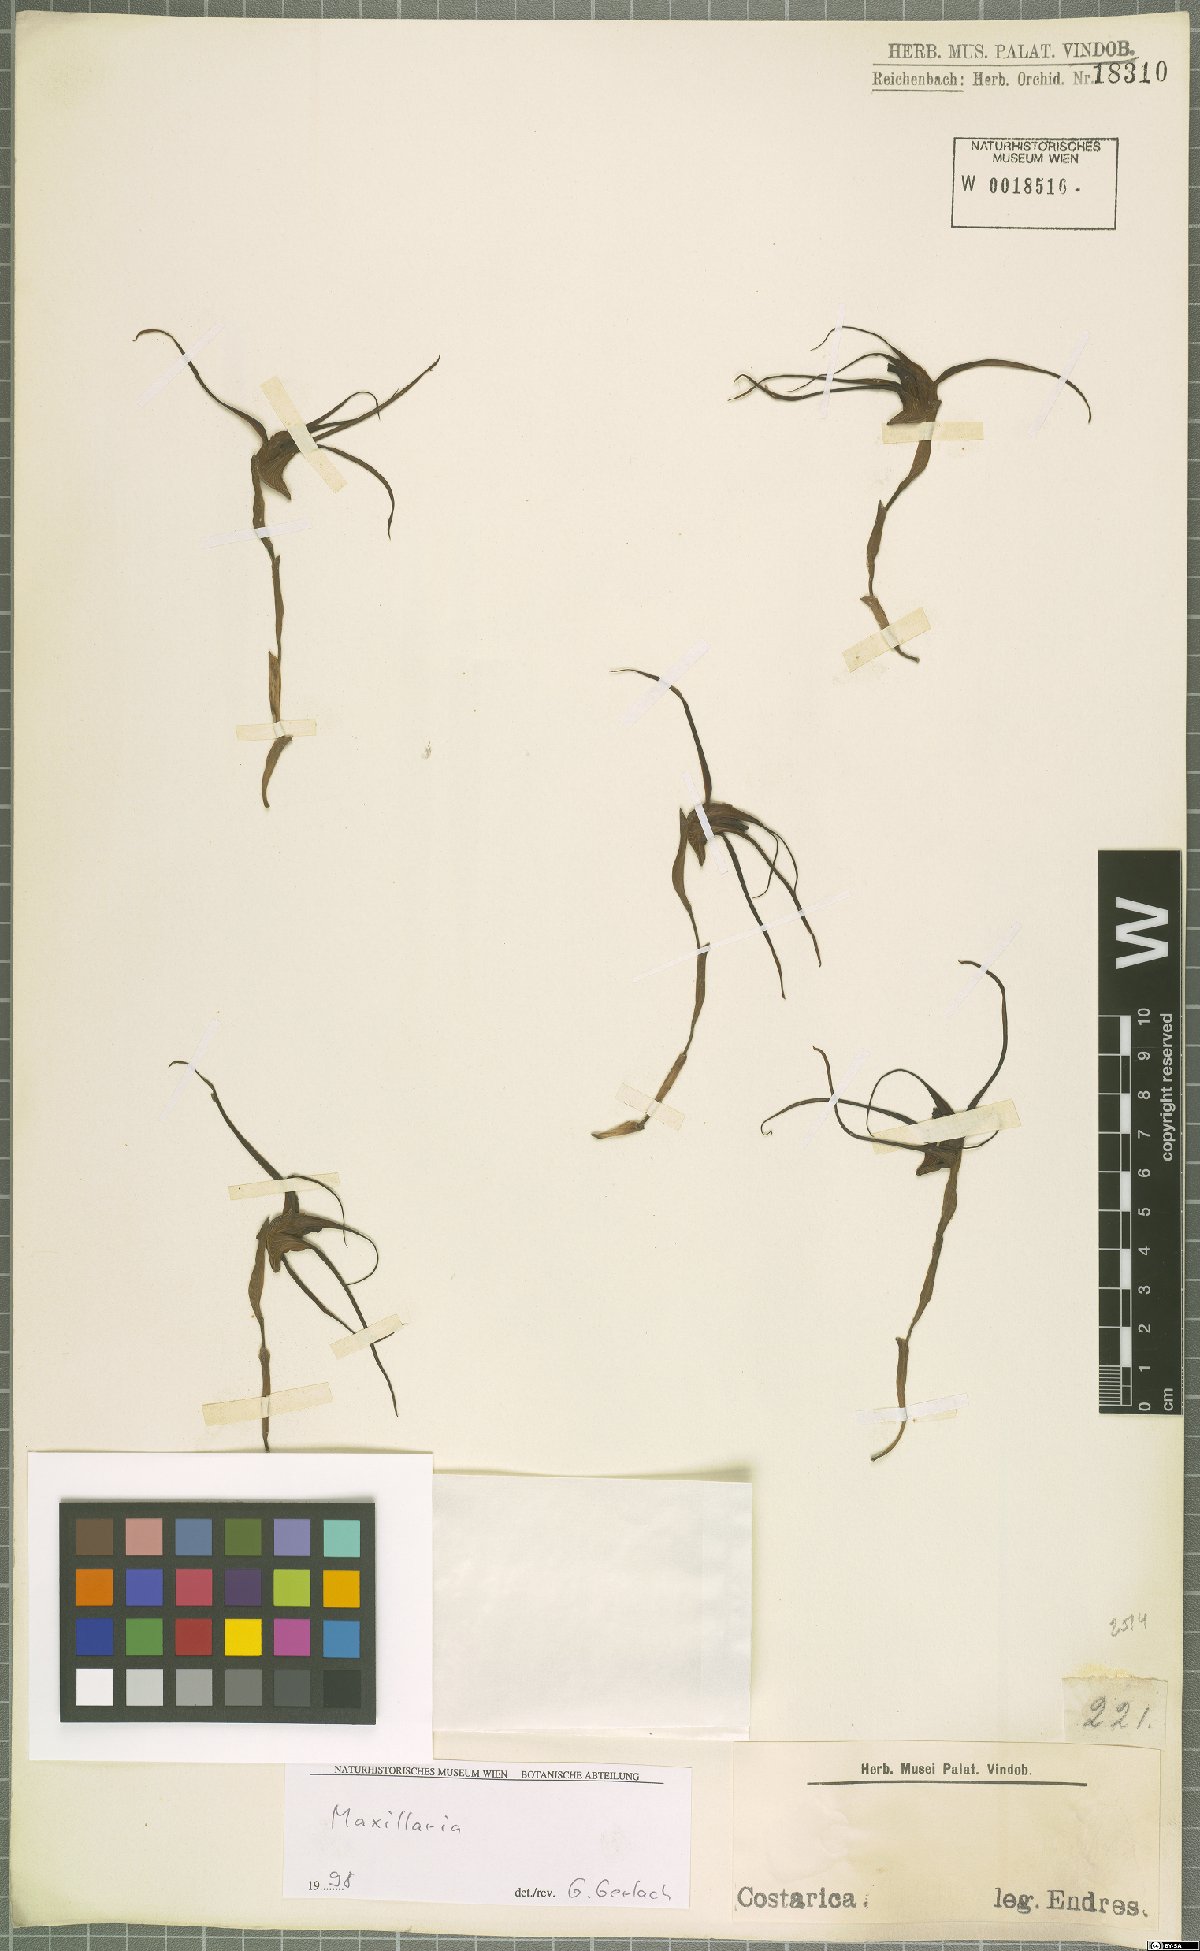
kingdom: Plantae
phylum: Tracheophyta
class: Liliopsida
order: Asparagales
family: Orchidaceae
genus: Maxillaria
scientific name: Maxillaria
